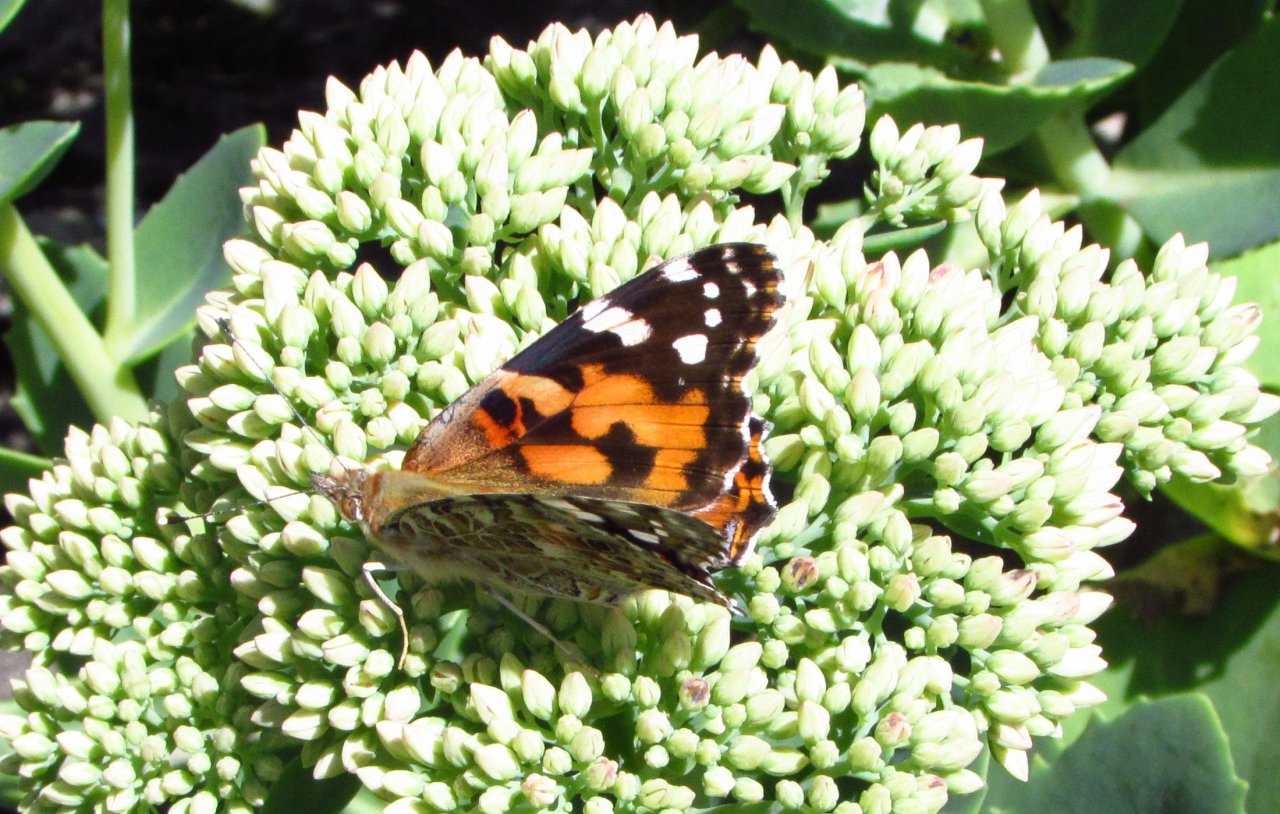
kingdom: Animalia
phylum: Arthropoda
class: Insecta
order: Lepidoptera
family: Nymphalidae
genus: Vanessa
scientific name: Vanessa cardui
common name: Painted Lady
